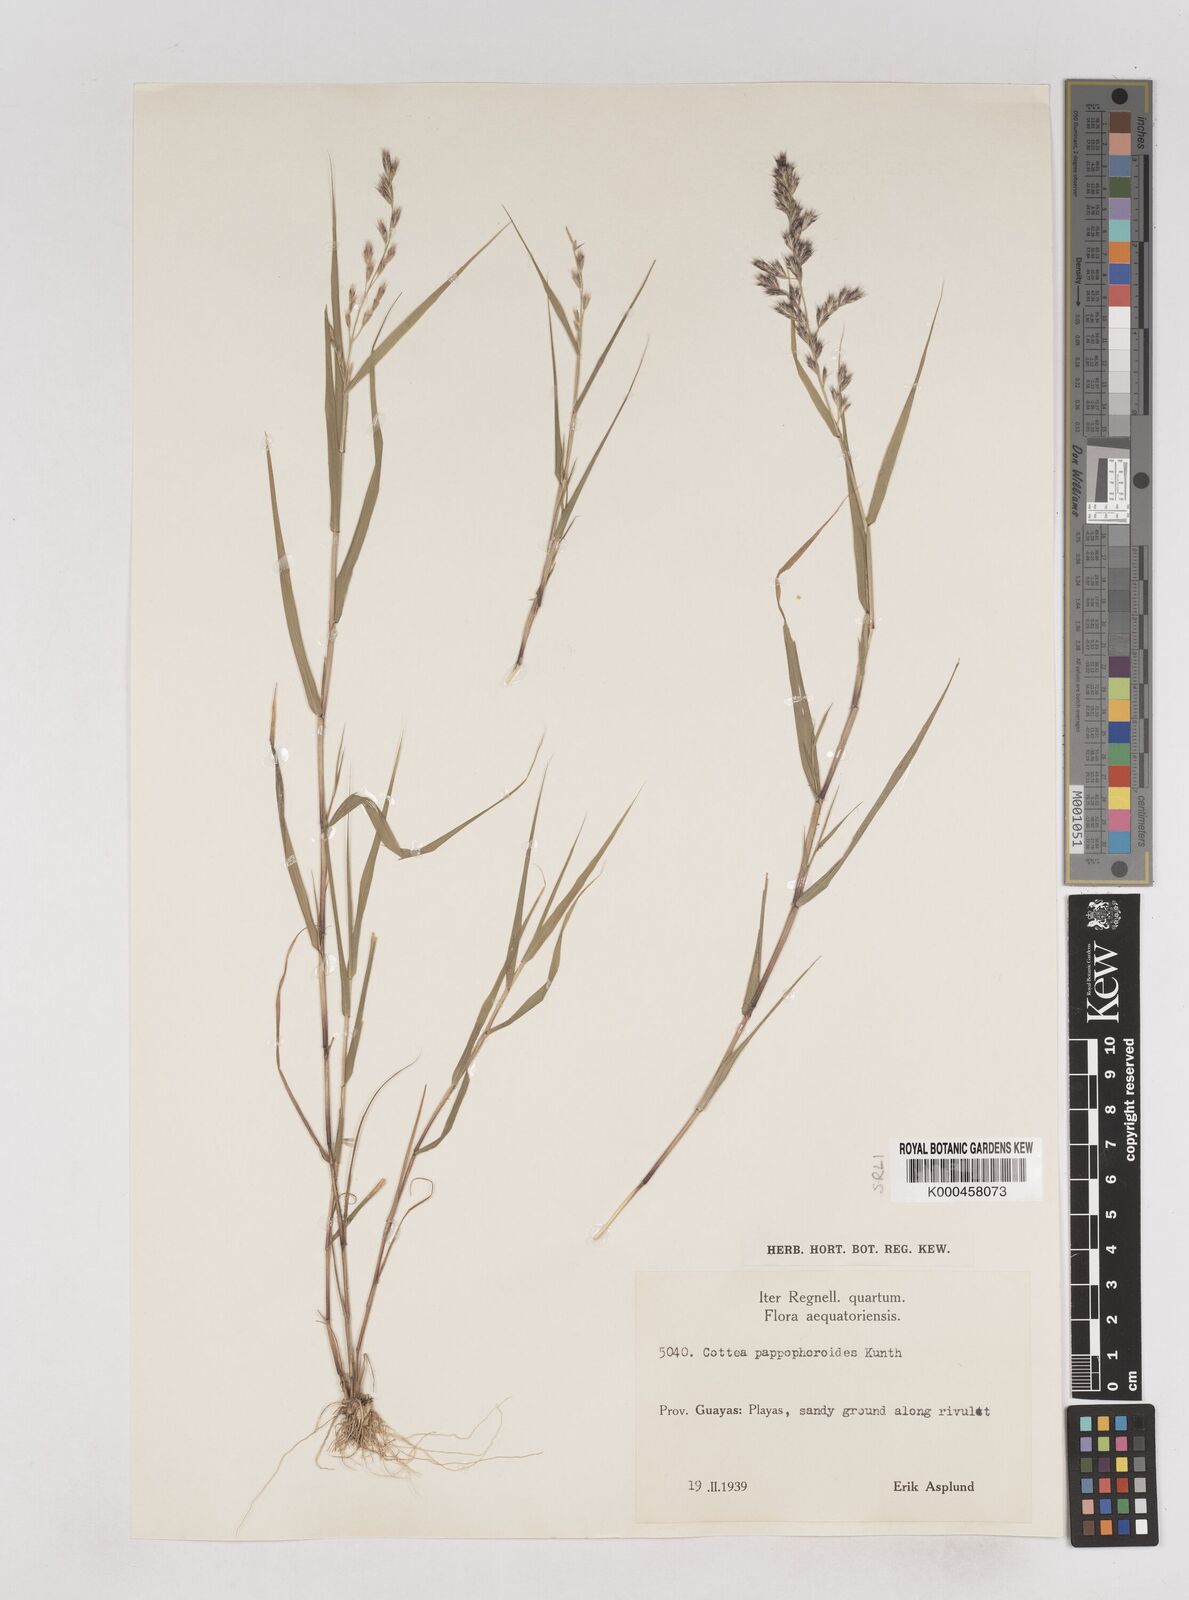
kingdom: Plantae
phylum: Tracheophyta
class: Liliopsida
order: Poales
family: Poaceae
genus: Cottea
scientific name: Cottea
